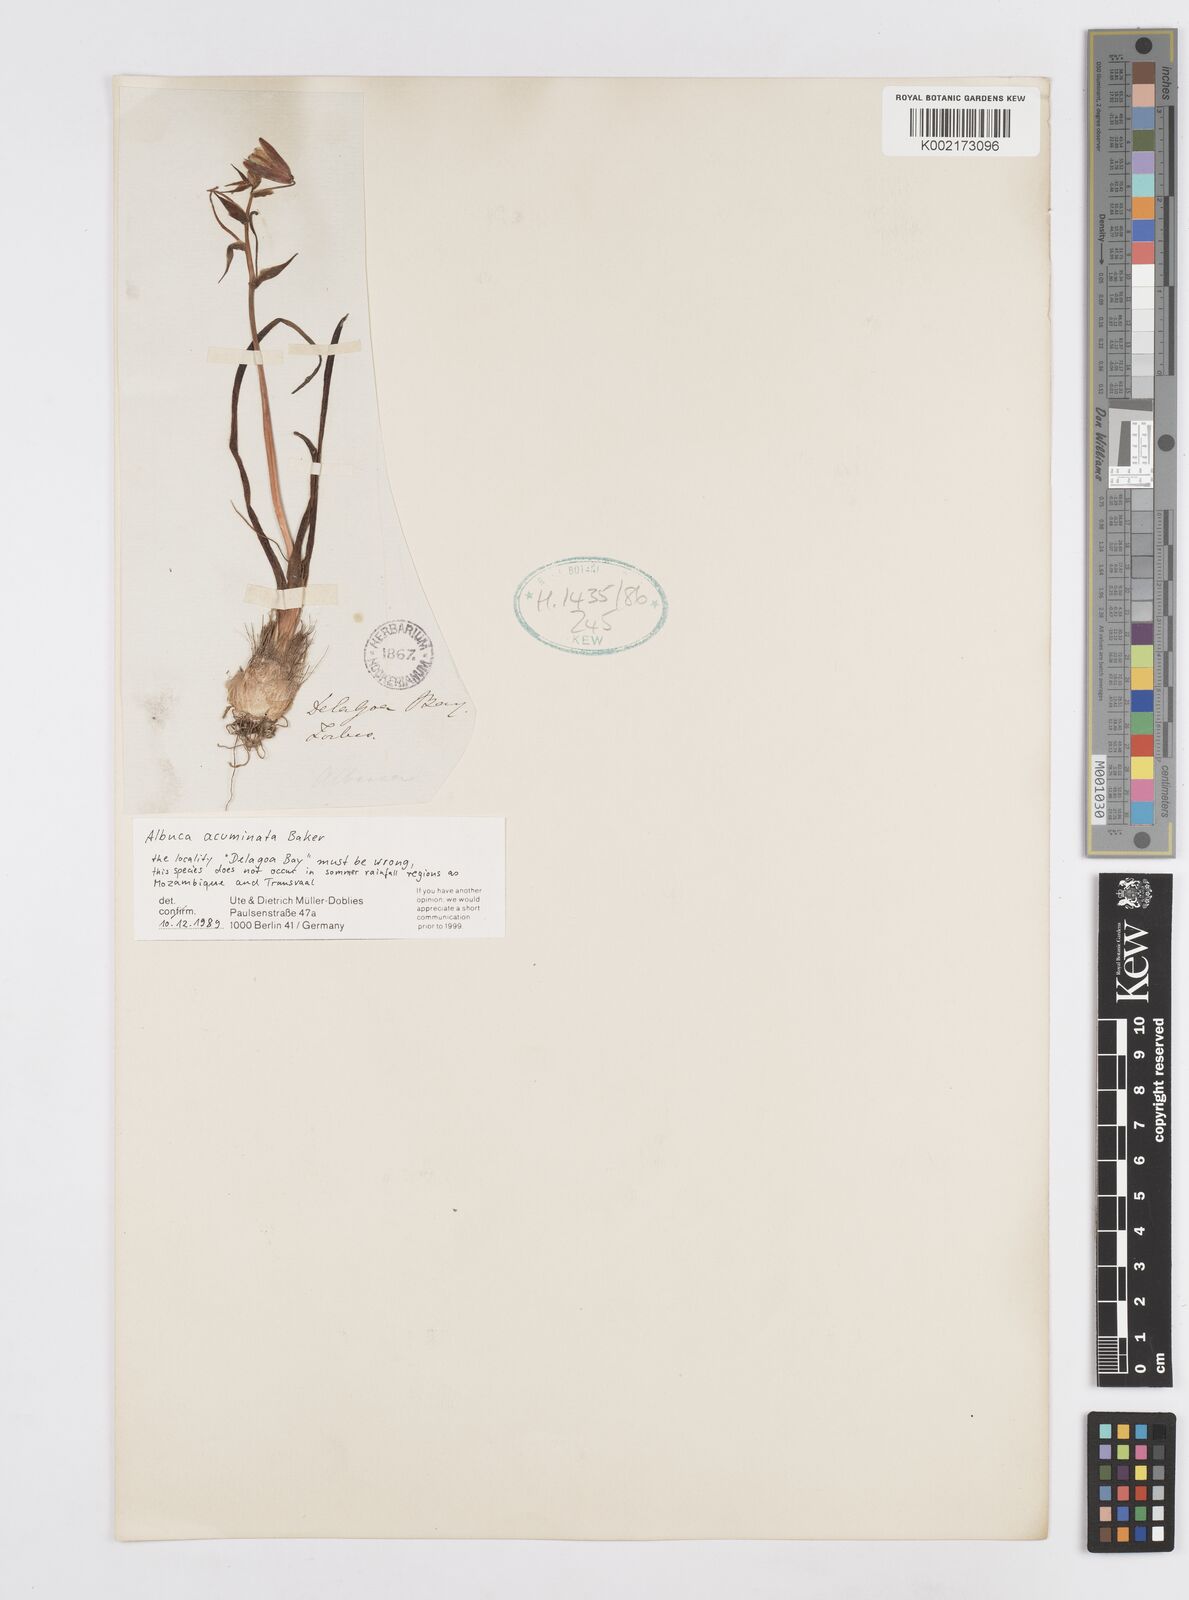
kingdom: Plantae
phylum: Tracheophyta
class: Liliopsida
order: Asparagales
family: Asparagaceae
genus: Albuca
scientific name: Albuca acuminata
